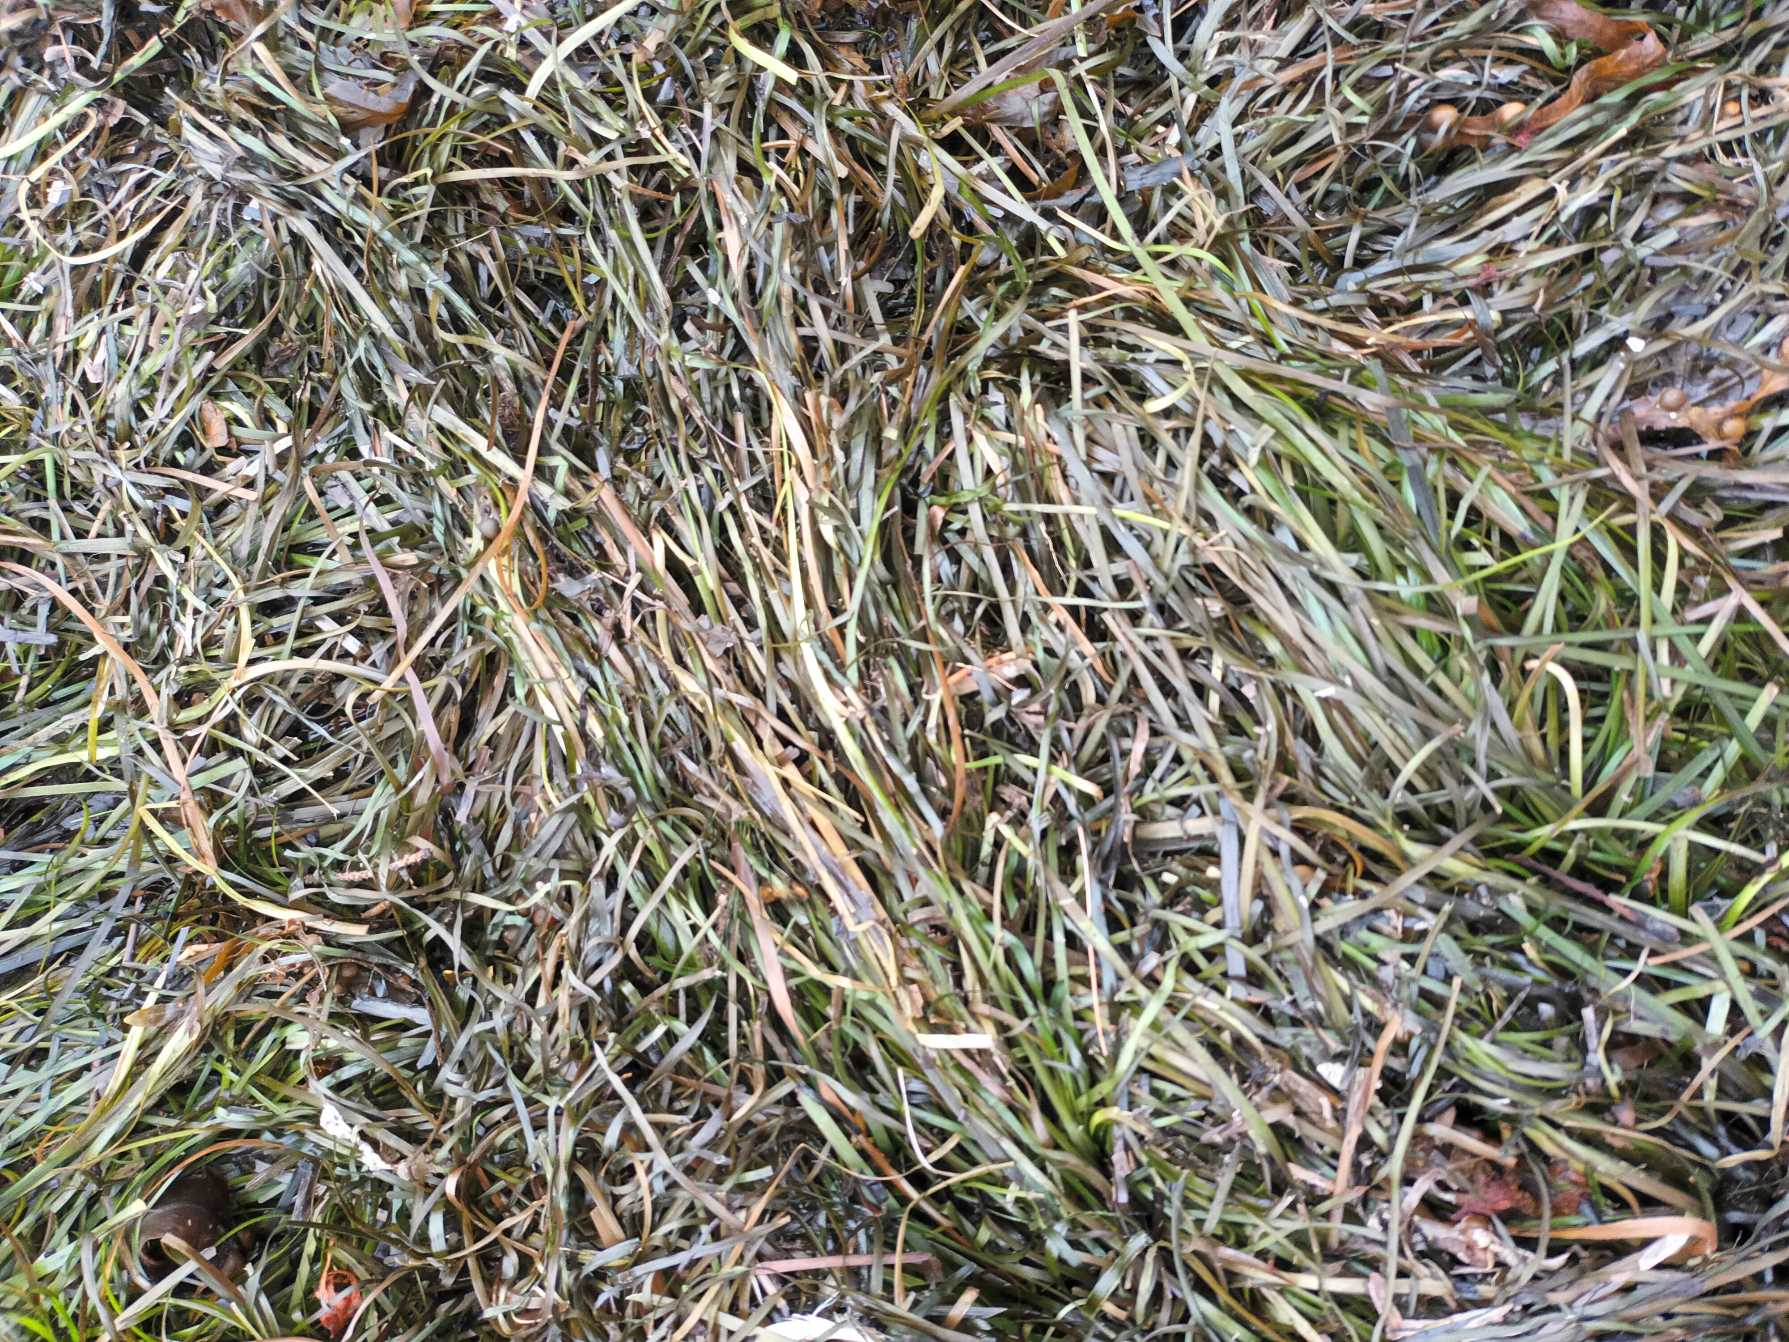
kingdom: Plantae
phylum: Tracheophyta
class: Liliopsida
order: Alismatales
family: Zosteraceae
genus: Zostera
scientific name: Zostera marina
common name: Almindelig bændeltang
